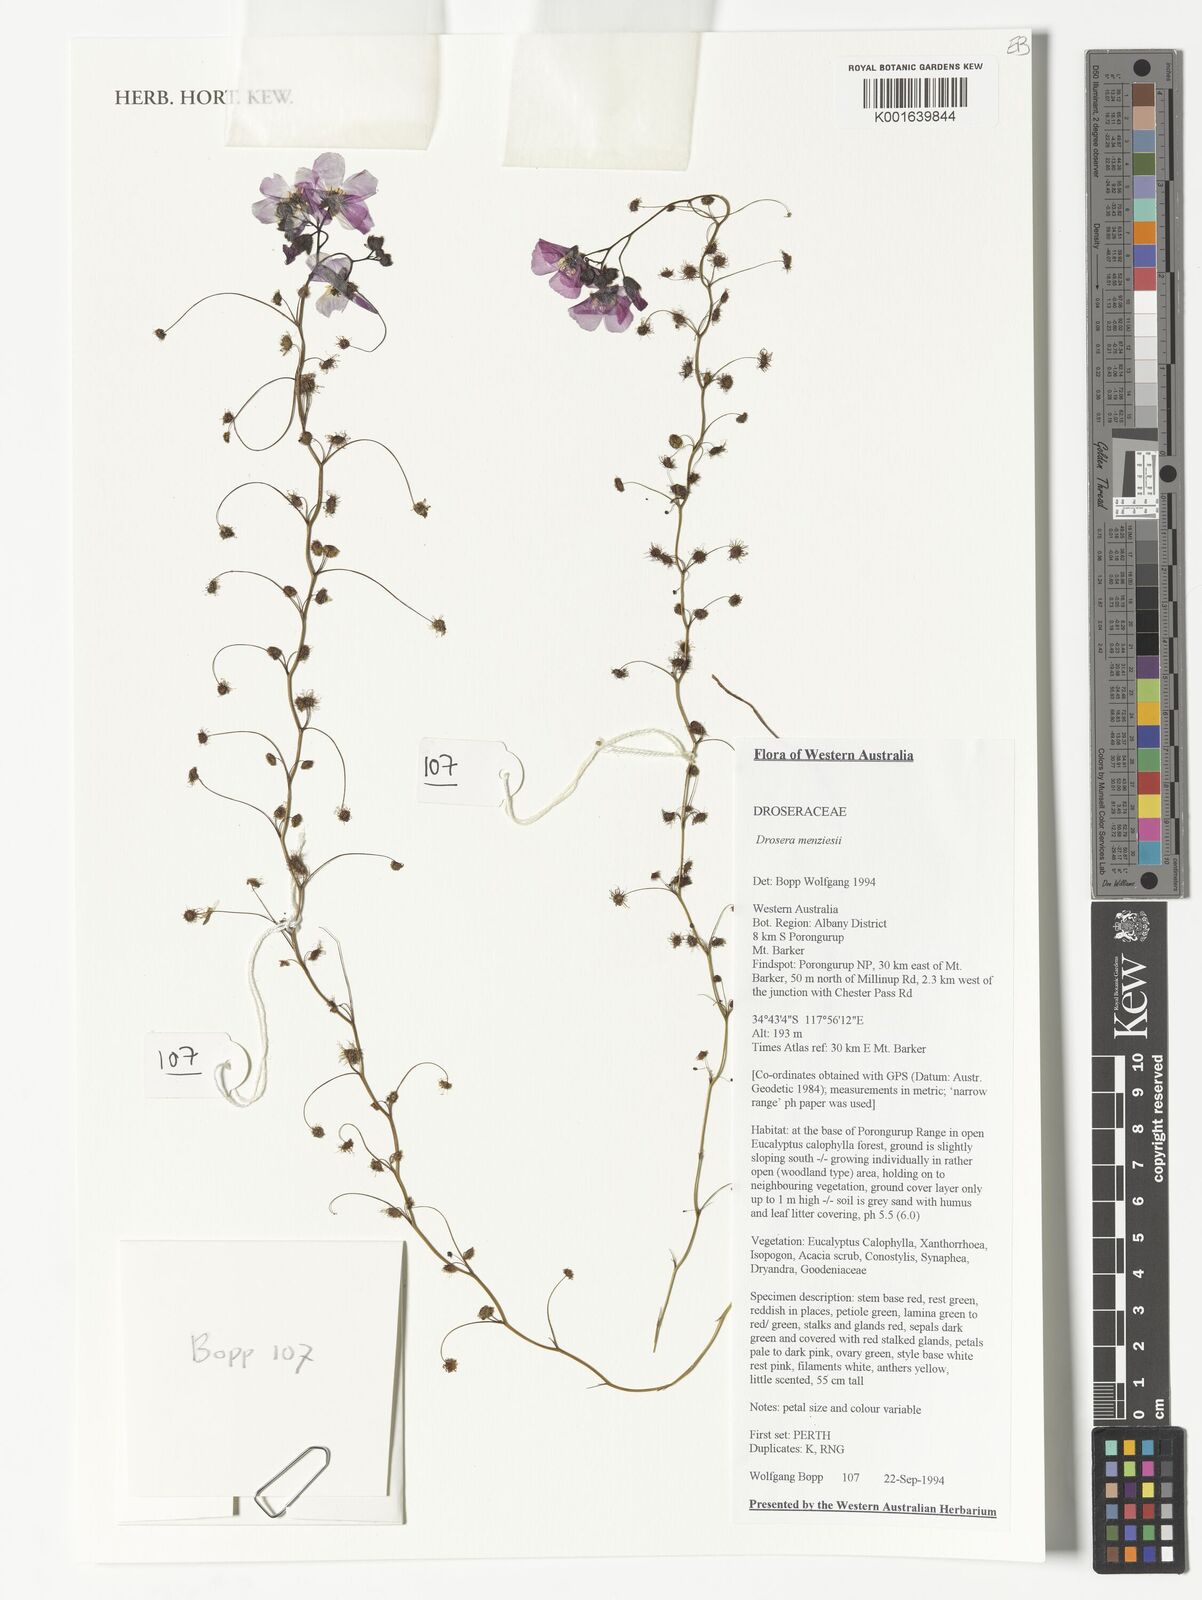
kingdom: Plantae
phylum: Tracheophyta
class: Magnoliopsida
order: Caryophyllales
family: Droseraceae
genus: Drosera
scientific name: Drosera menziesii
